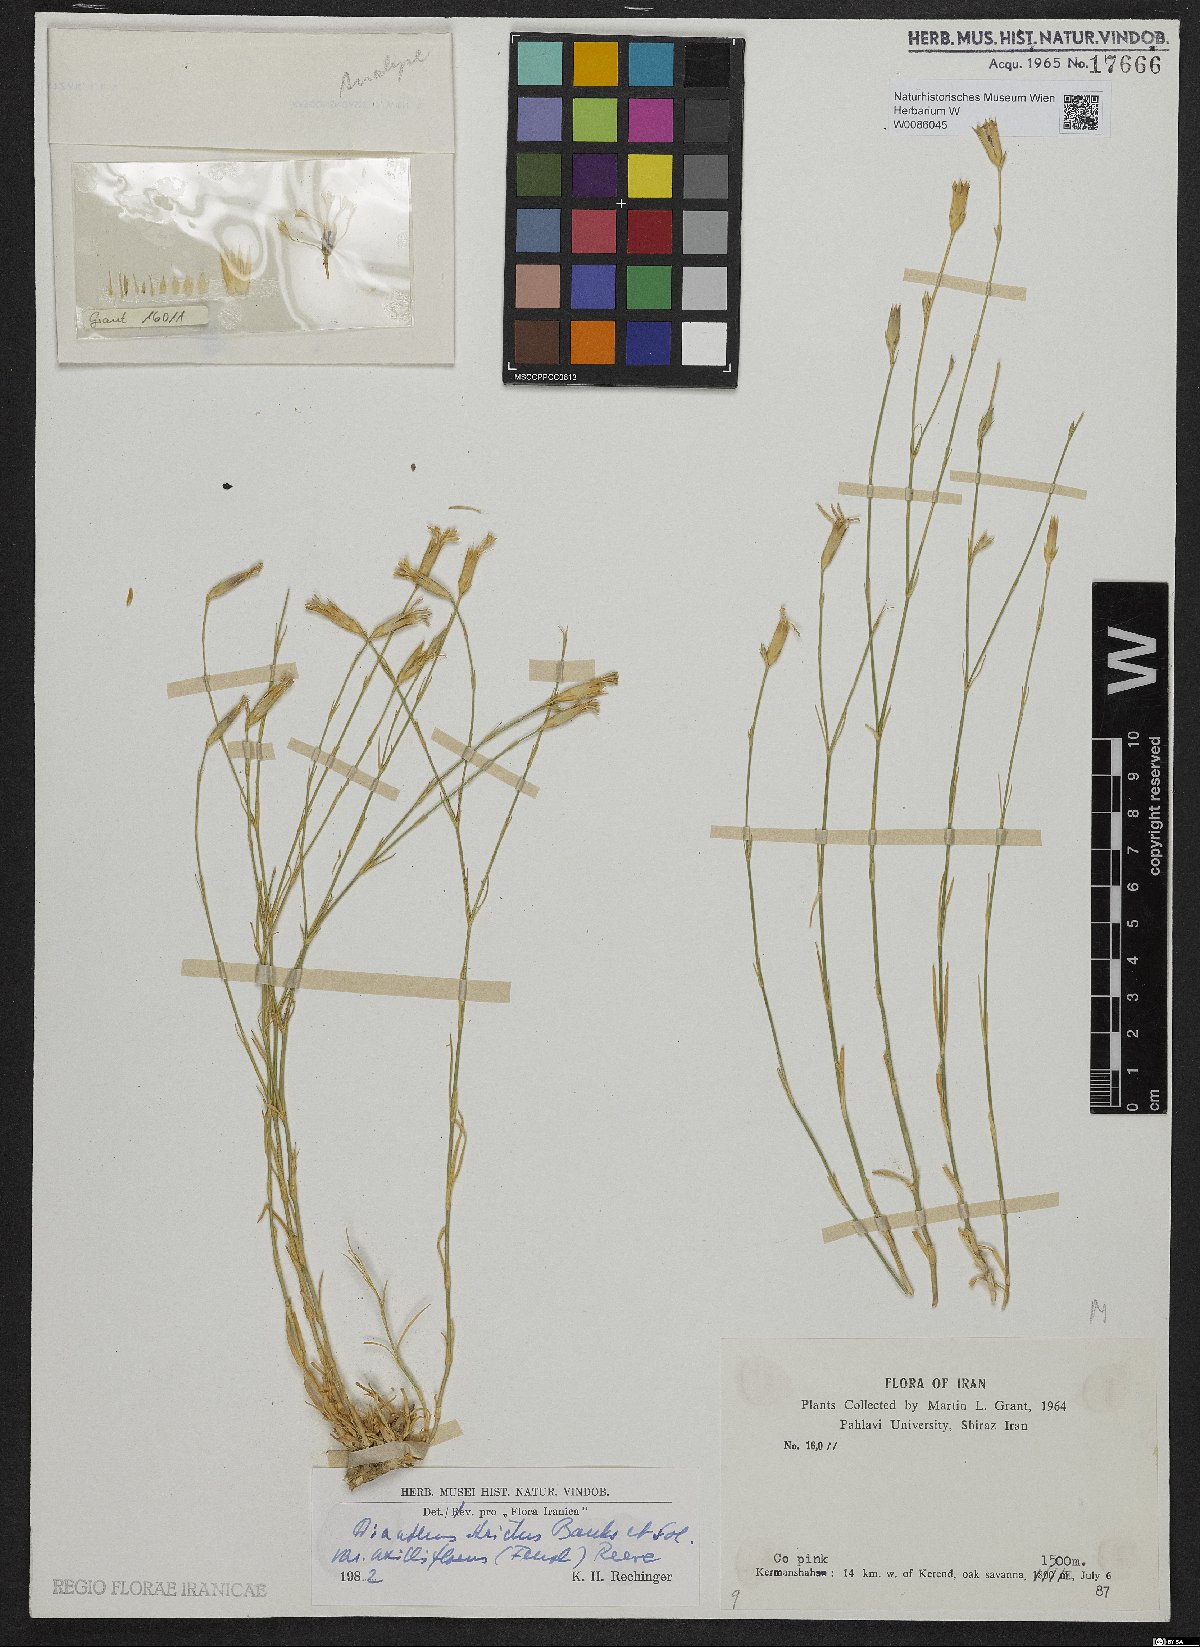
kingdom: Plantae
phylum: Tracheophyta
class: Magnoliopsida
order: Caryophyllales
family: Caryophyllaceae
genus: Dianthus
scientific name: Dianthus strictus
